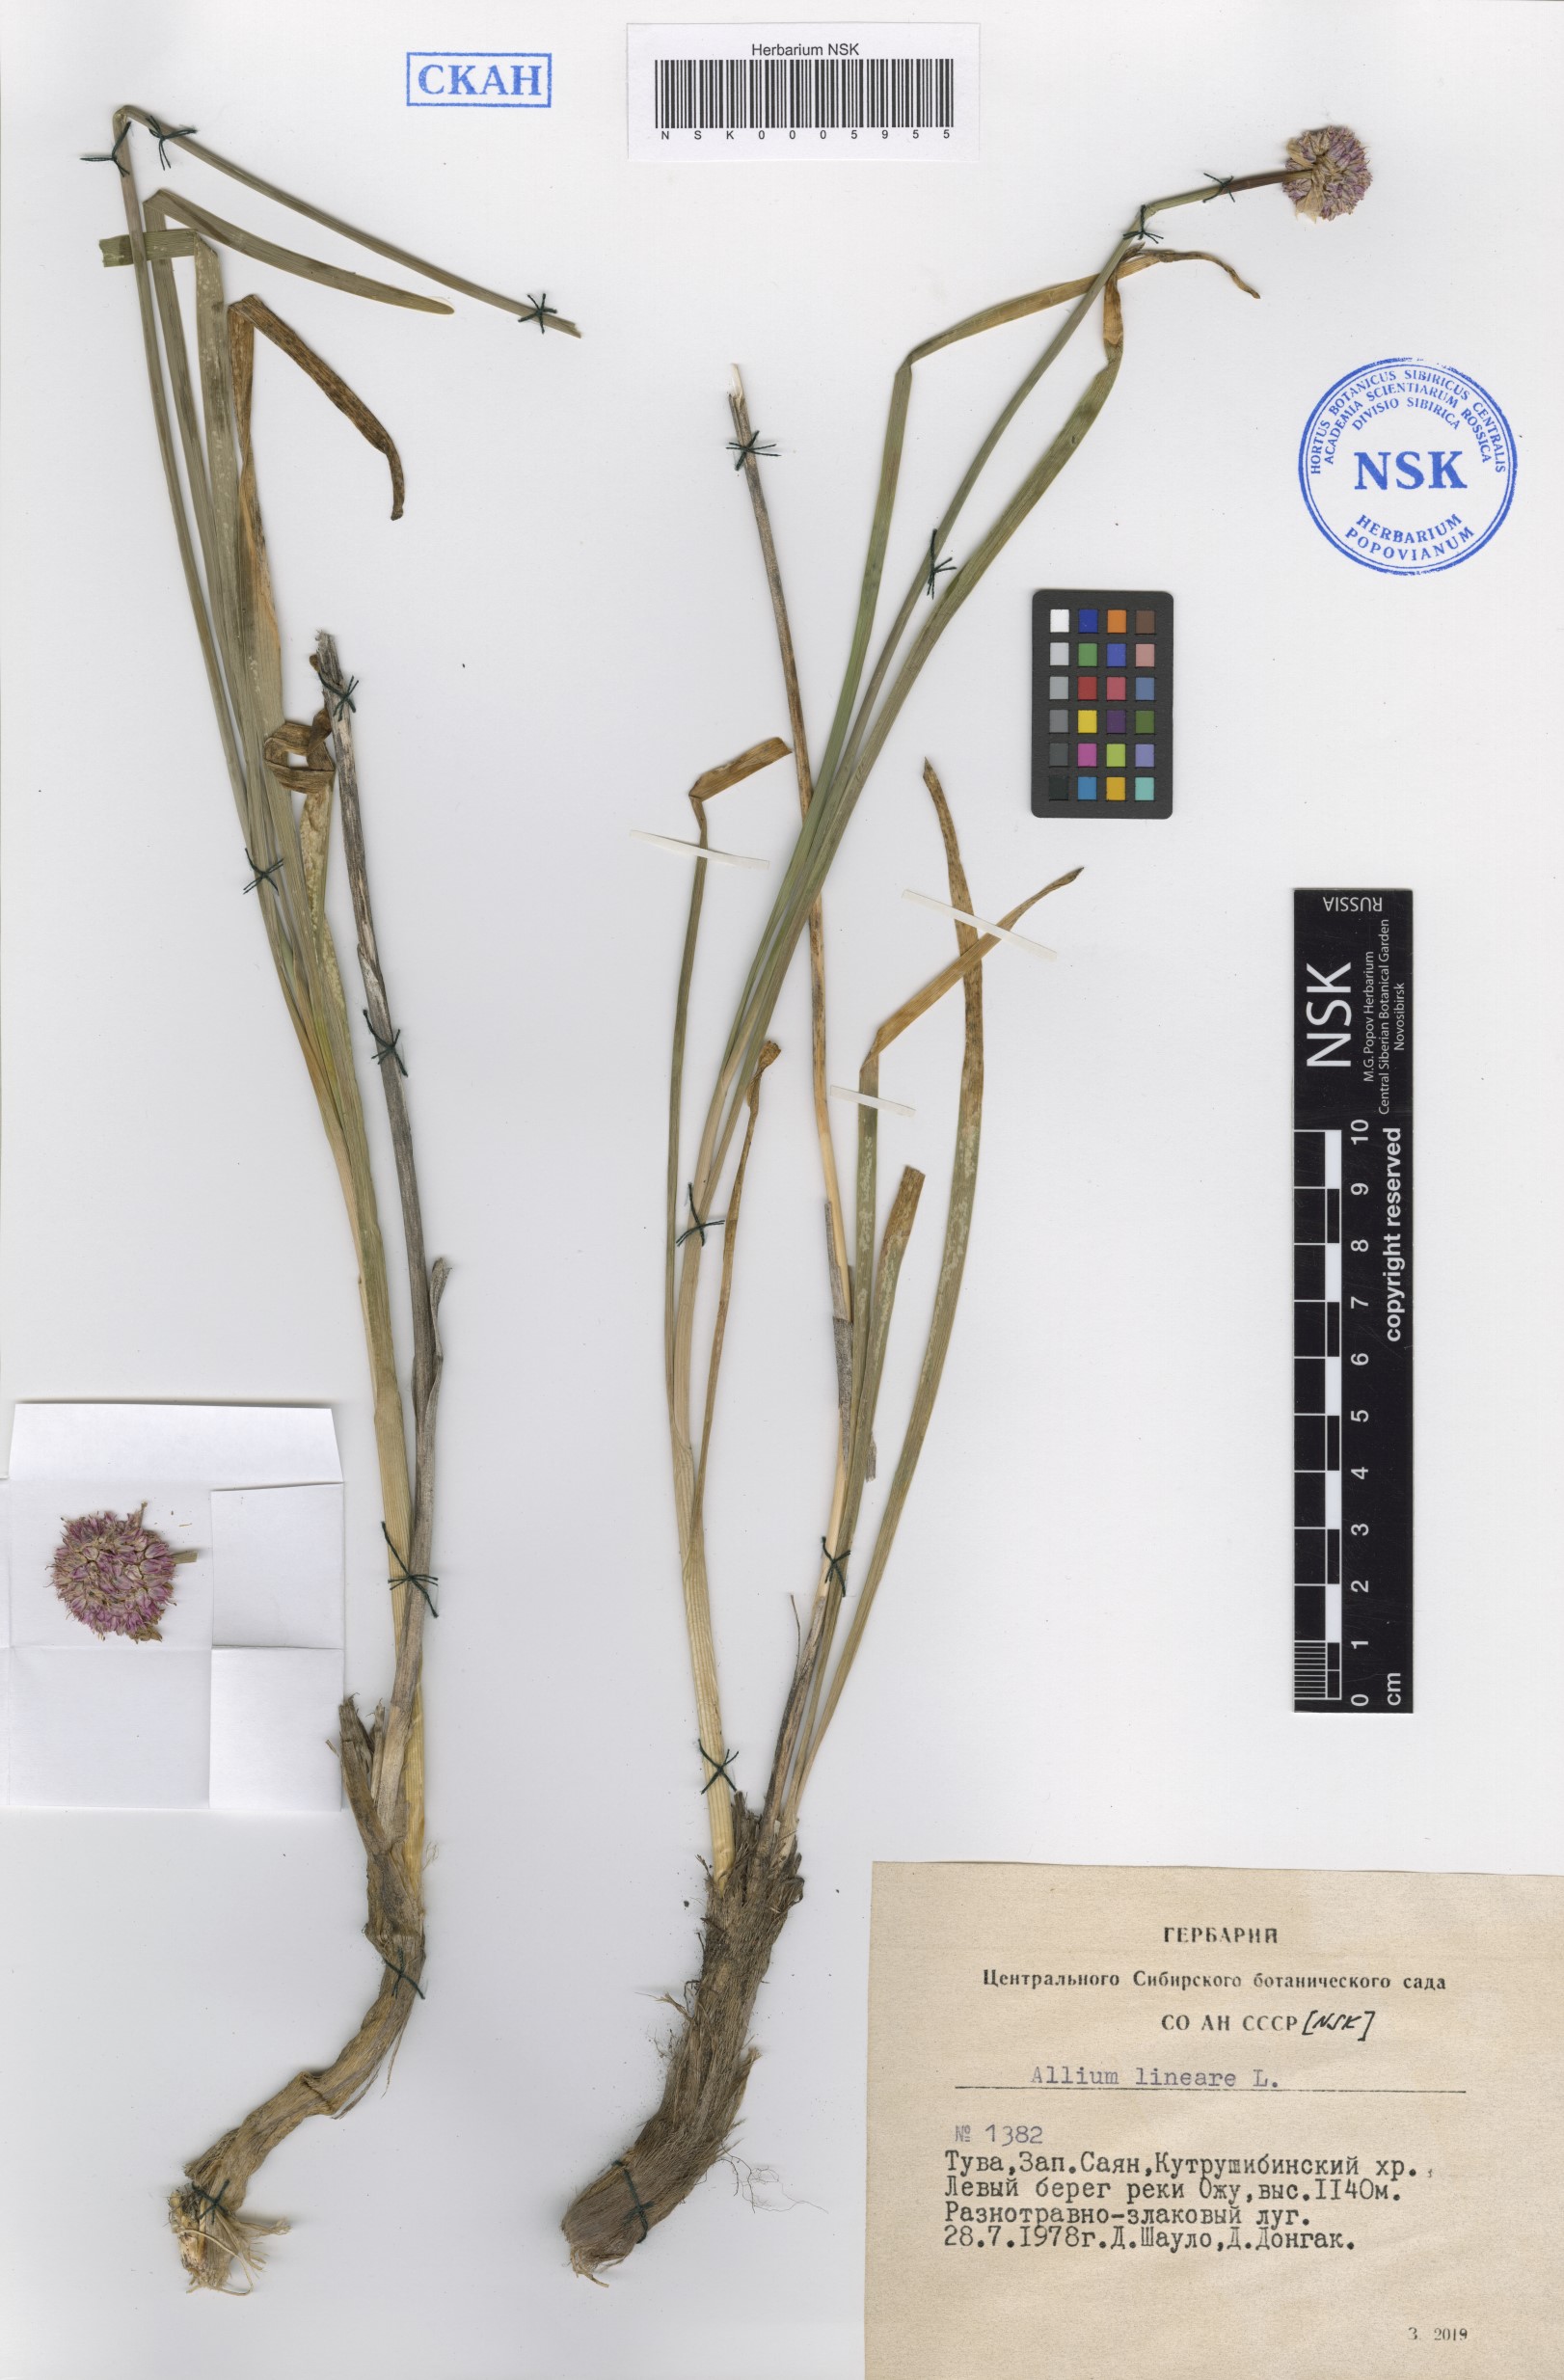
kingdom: Plantae
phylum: Tracheophyta
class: Liliopsida
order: Asparagales
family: Amaryllidaceae
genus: Allium
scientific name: Allium lineare
